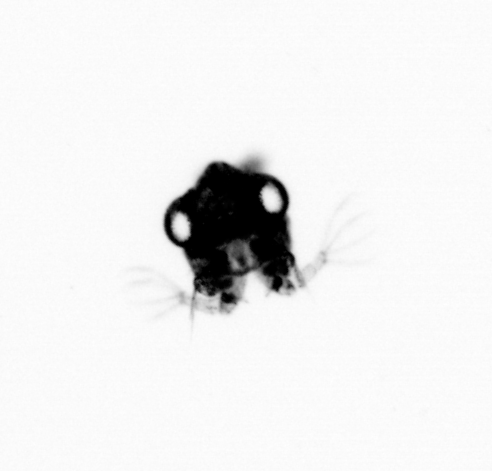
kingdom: Animalia
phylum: Arthropoda
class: Malacostraca
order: Decapoda
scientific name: Decapoda
